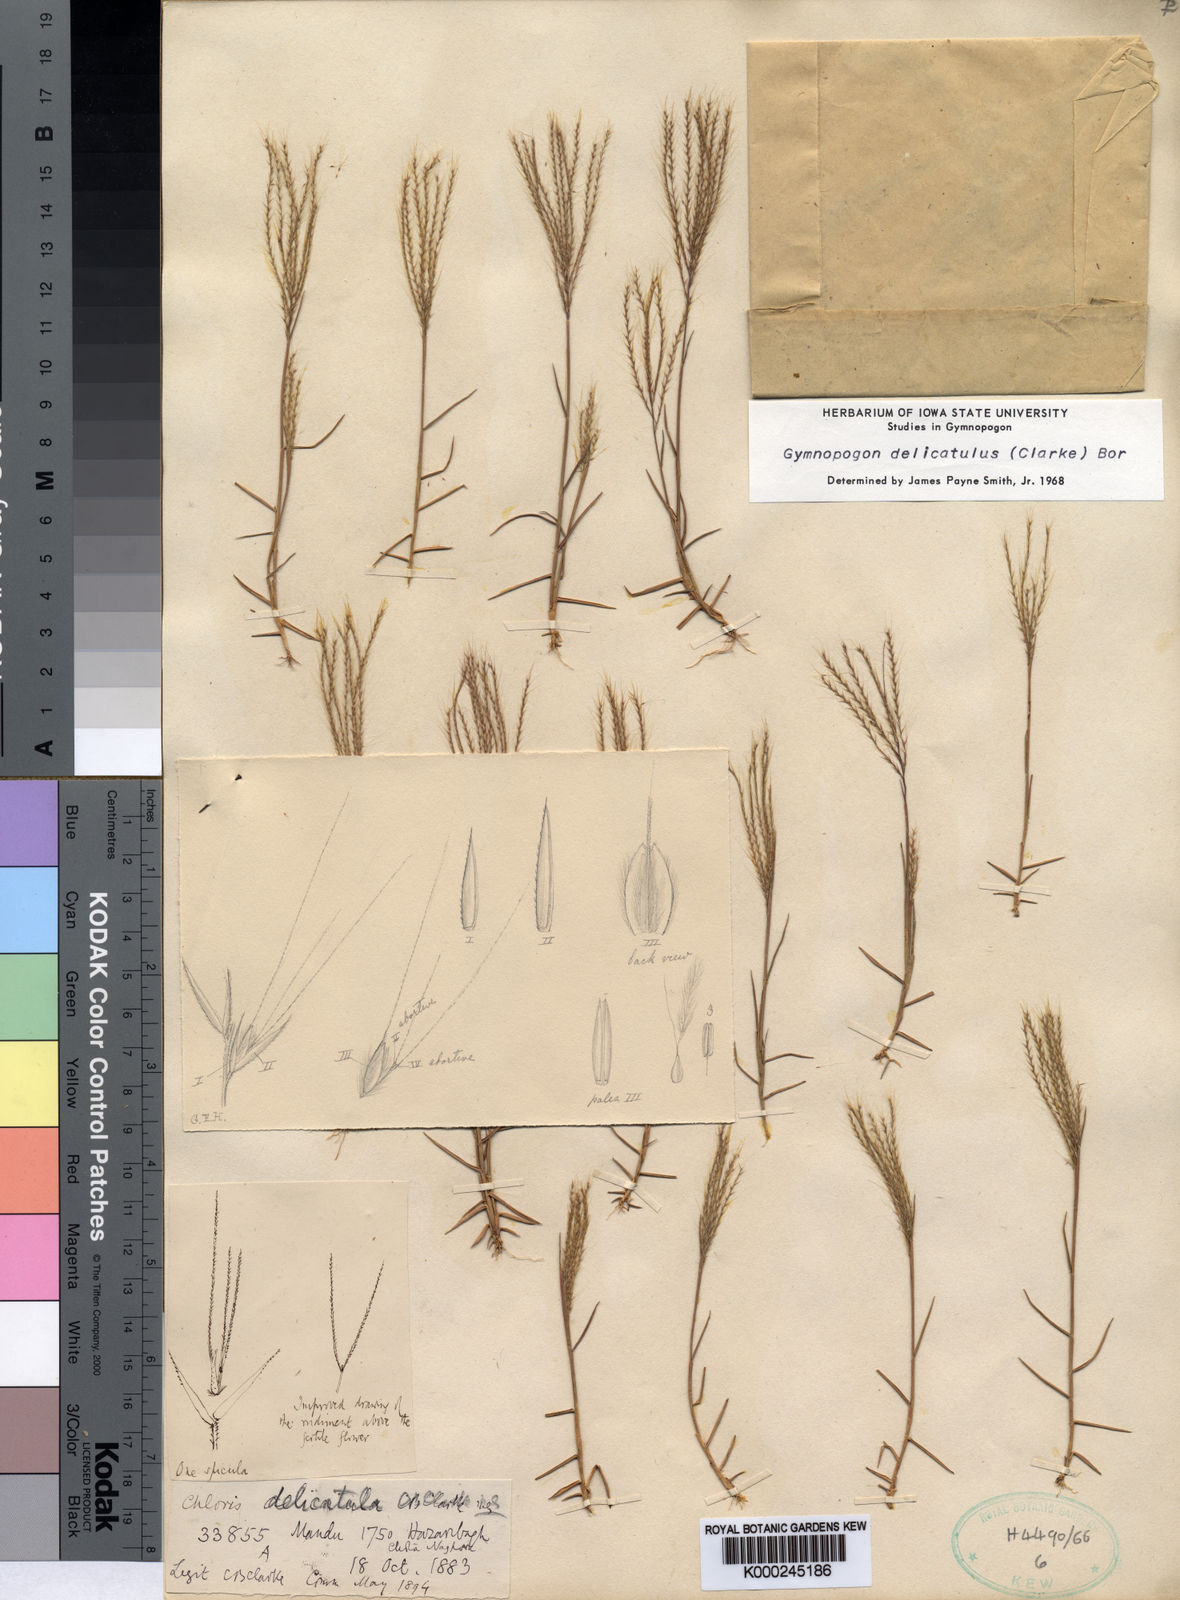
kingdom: Plantae
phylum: Tracheophyta
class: Liliopsida
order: Poales
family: Poaceae
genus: Gymnopogon
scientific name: Gymnopogon delicatulus
